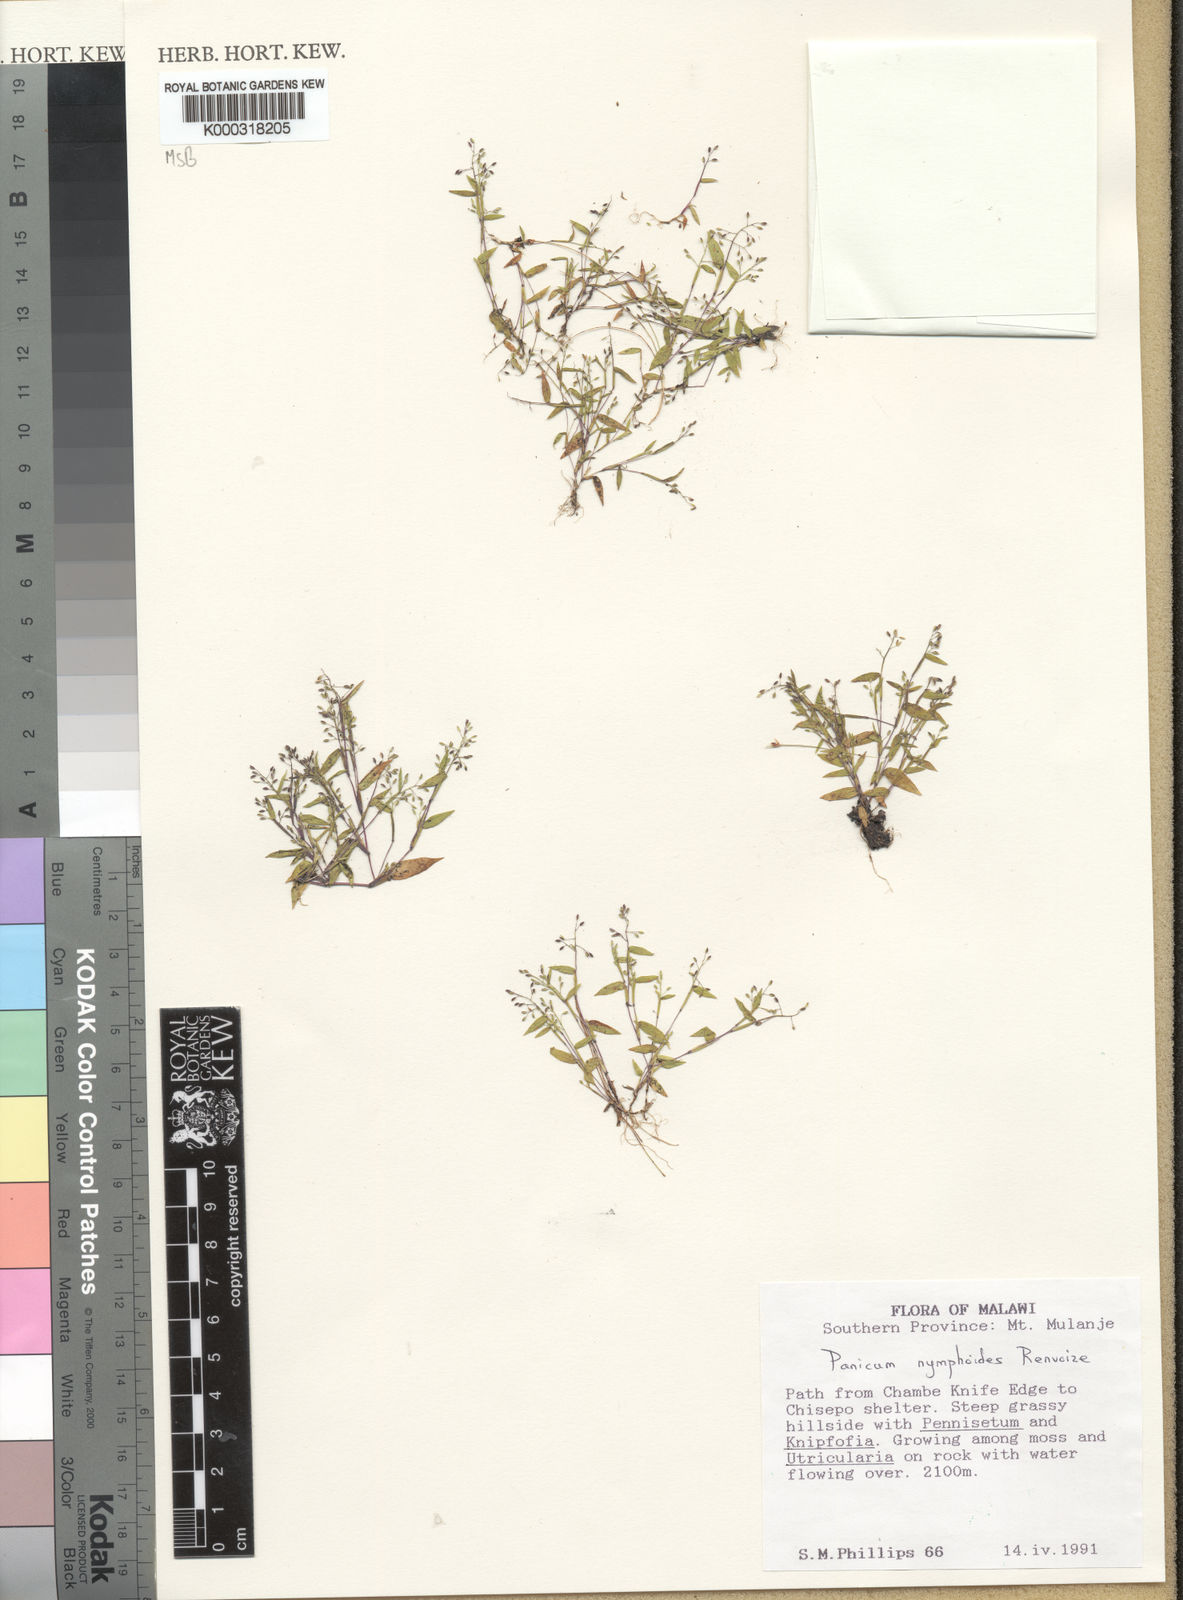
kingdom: Plantae
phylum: Tracheophyta
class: Liliopsida
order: Poales
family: Poaceae
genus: Panicum
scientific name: Panicum nymphoides
